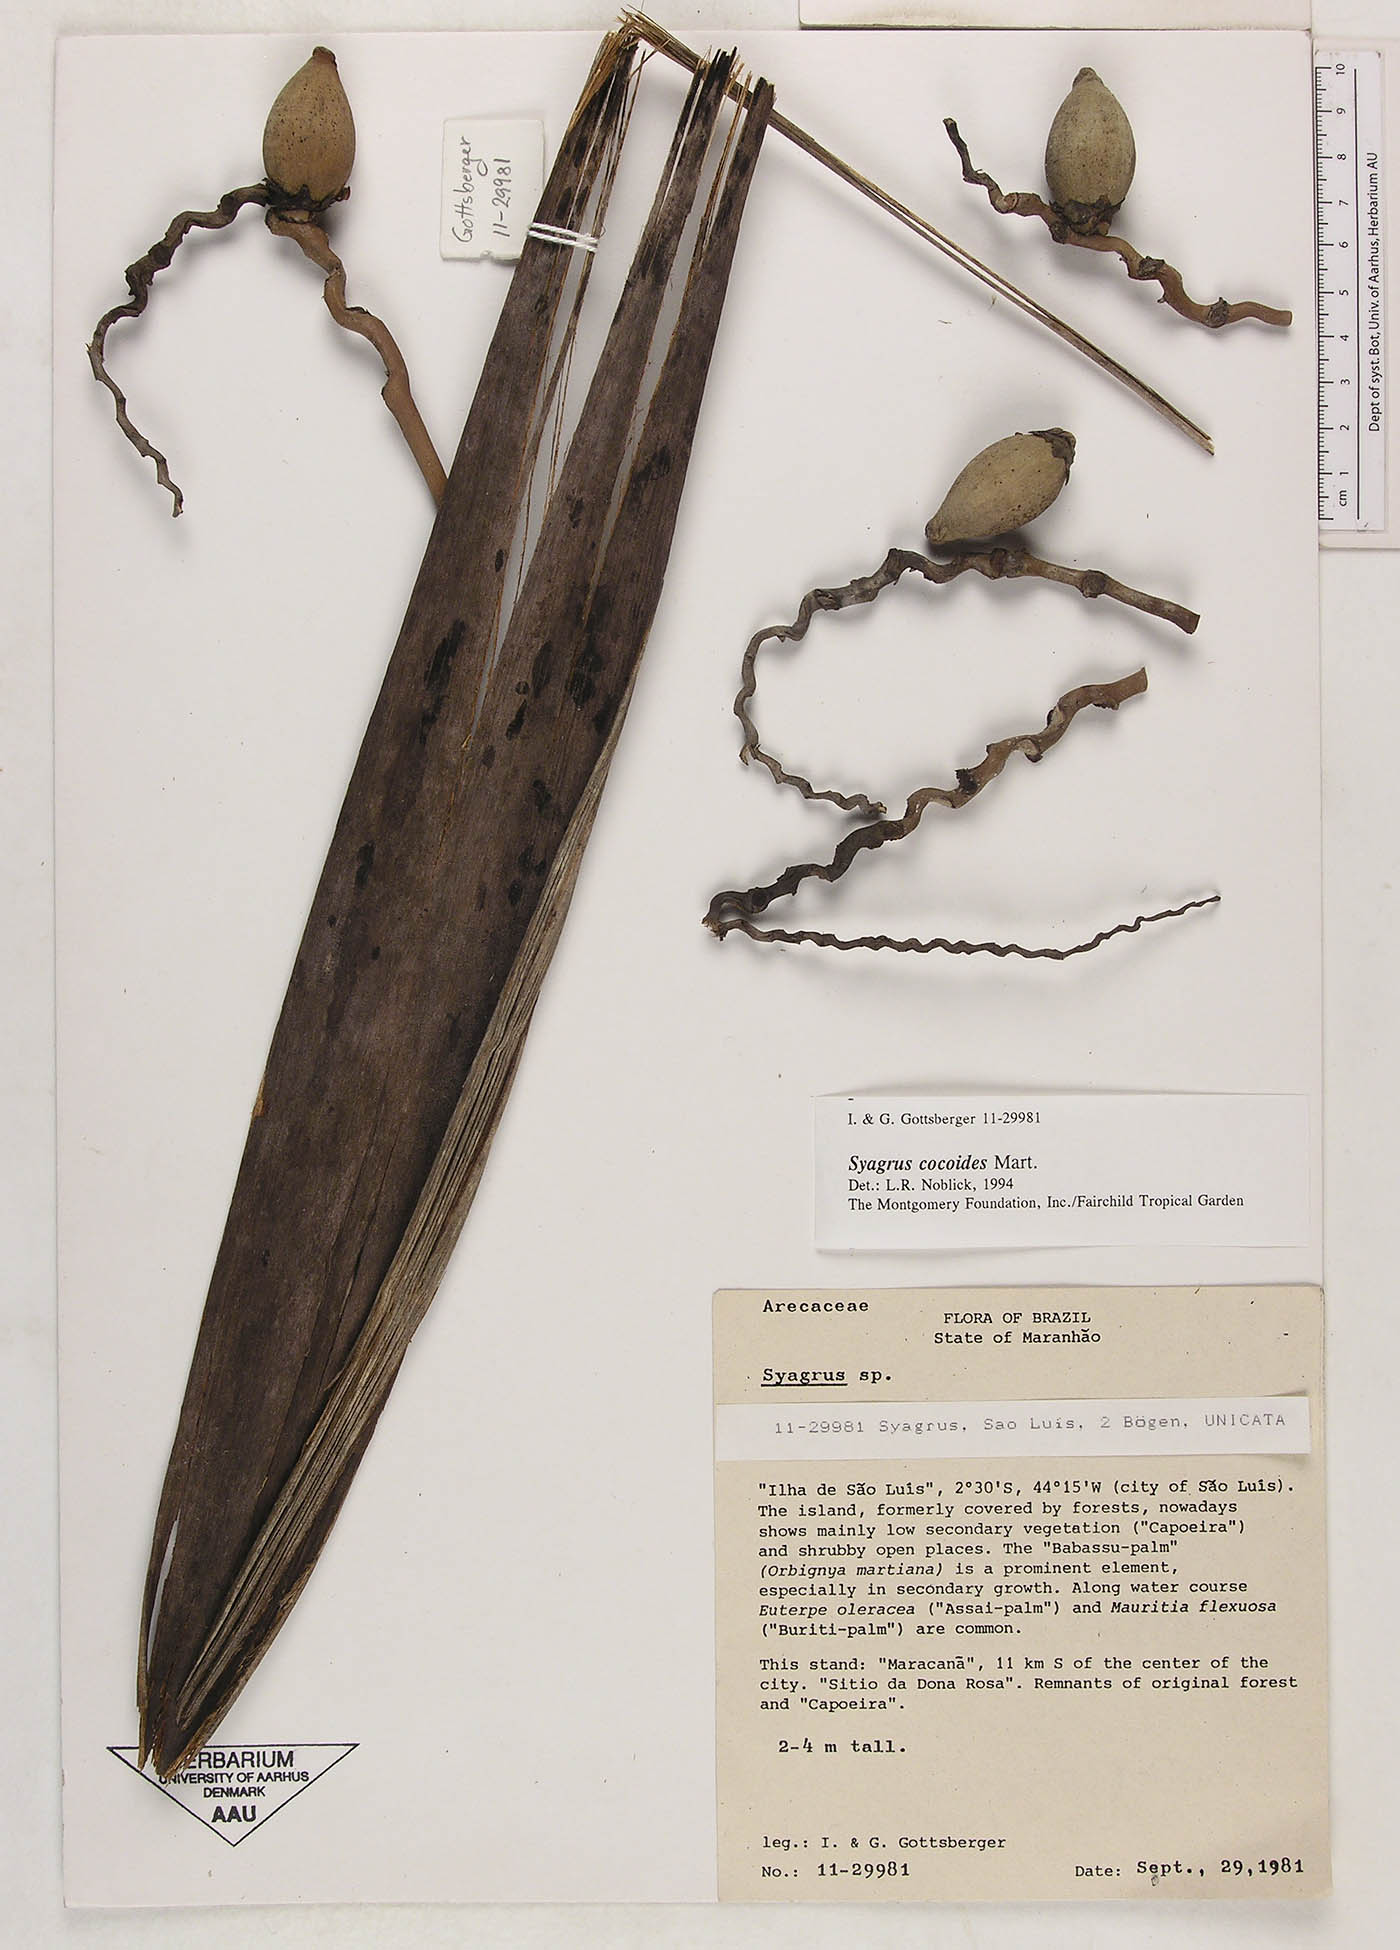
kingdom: Plantae
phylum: Tracheophyta
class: Liliopsida
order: Arecales
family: Arecaceae
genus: Syagrus
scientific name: Syagrus cocoides
